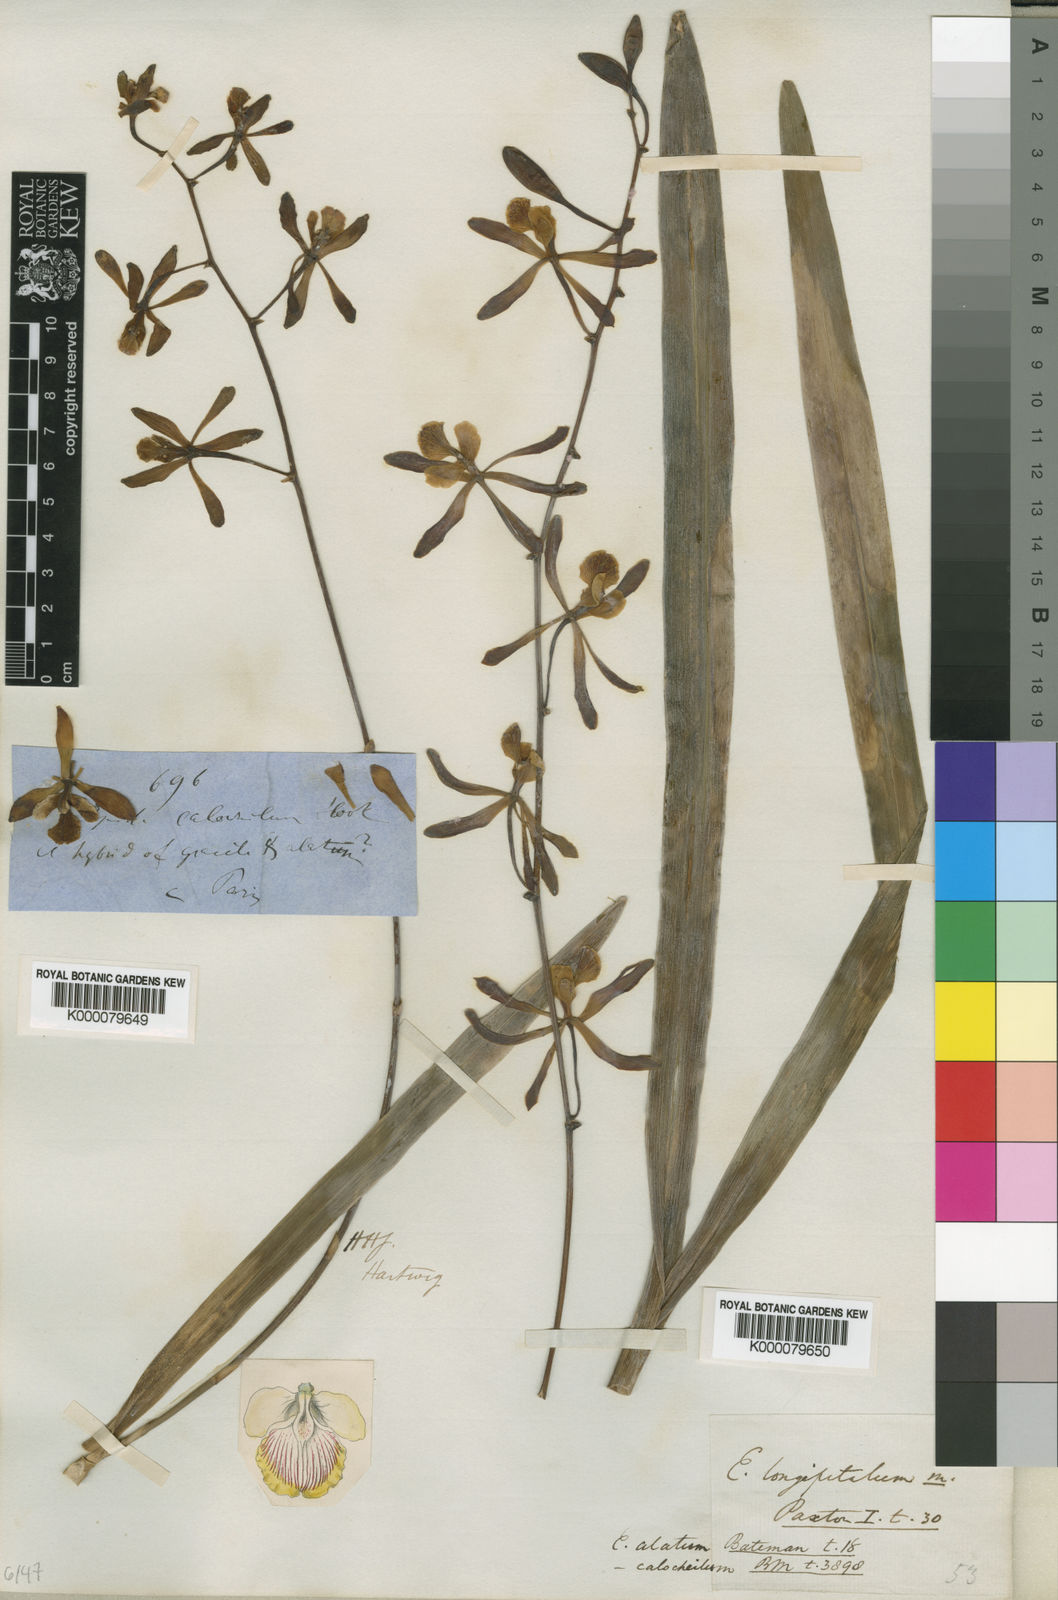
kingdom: Plantae
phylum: Tracheophyta
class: Liliopsida
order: Asparagales
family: Orchidaceae
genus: Encyclia
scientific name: Encyclia alata
